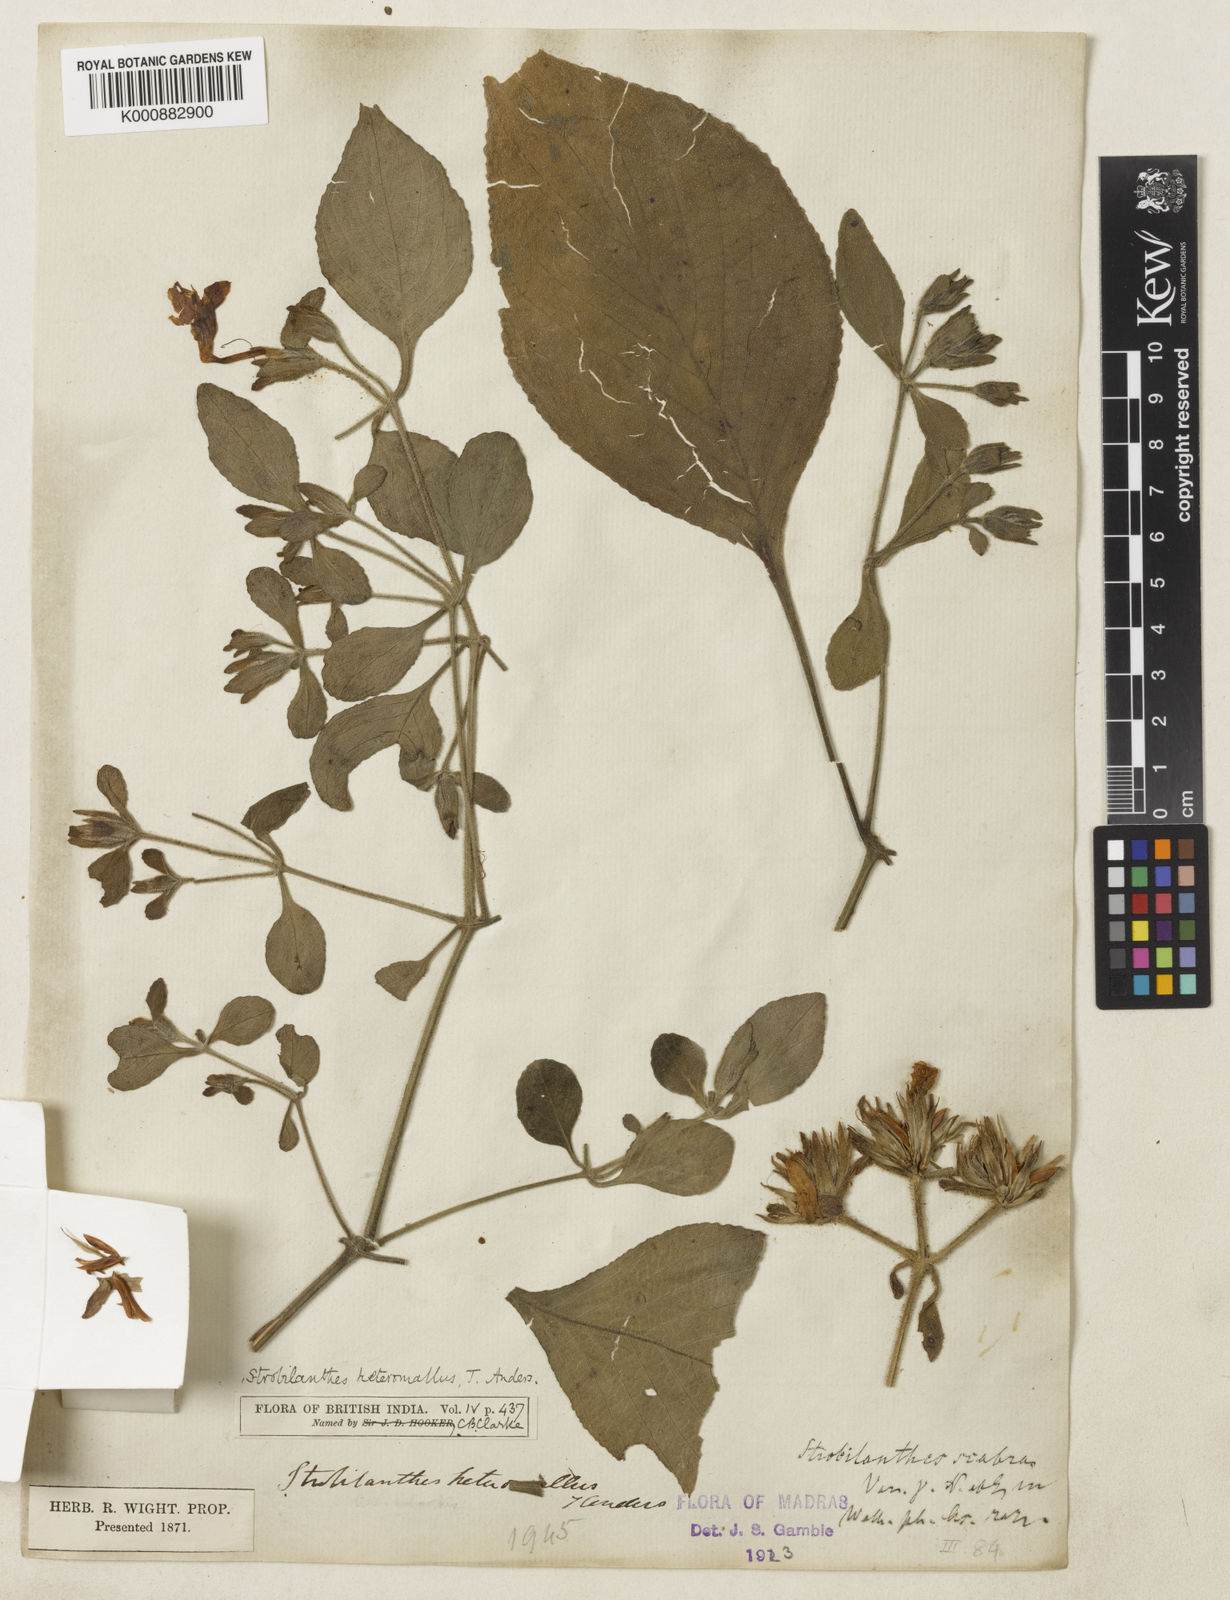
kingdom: Plantae
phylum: Tracheophyta
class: Magnoliopsida
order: Lamiales
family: Acanthaceae
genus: Strobilanthes
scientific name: Strobilanthes
